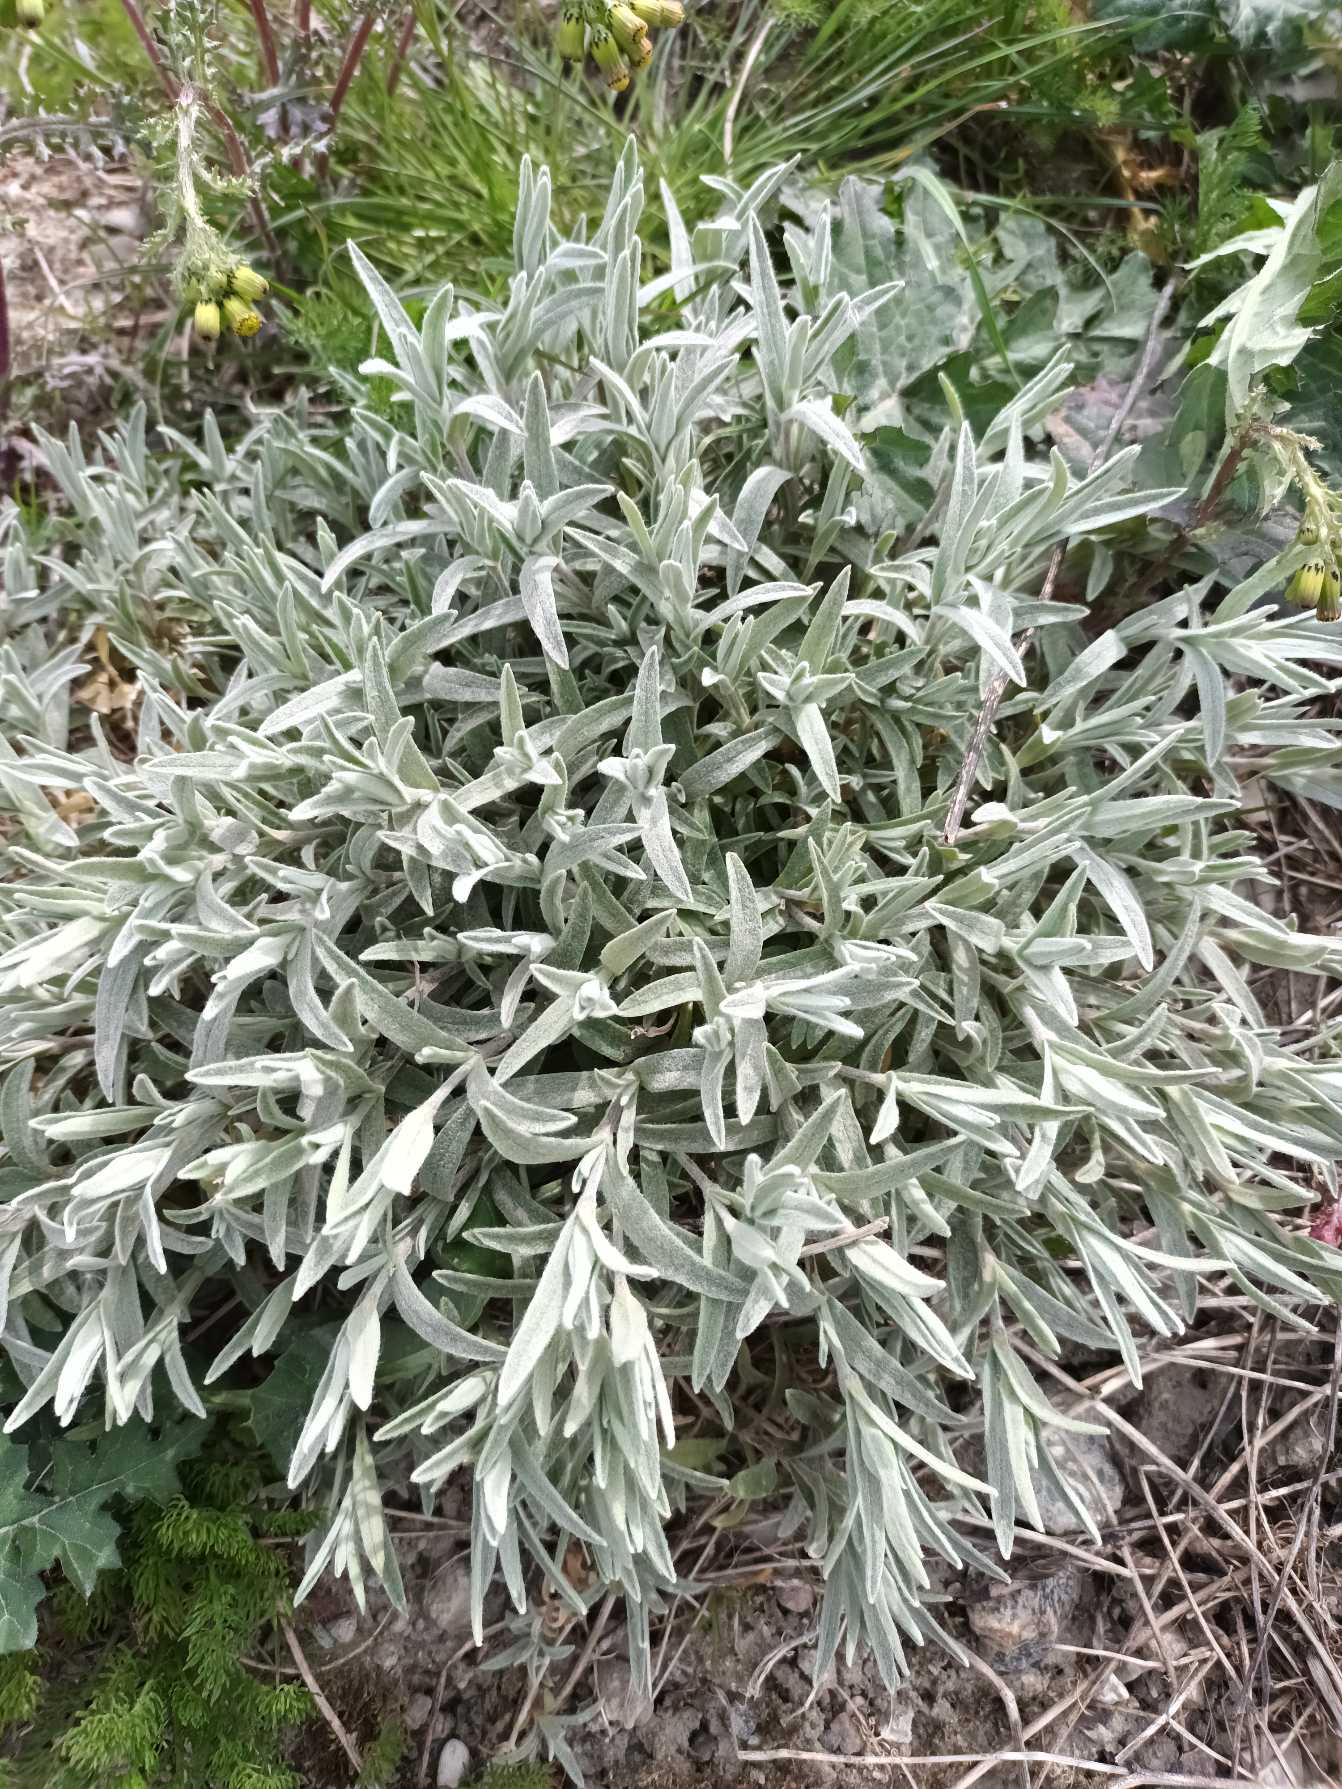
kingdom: Plantae
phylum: Tracheophyta
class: Magnoliopsida
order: Caryophyllales
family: Caryophyllaceae
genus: Cerastium
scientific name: Cerastium tomentosum
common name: Filtet hønsetarm
